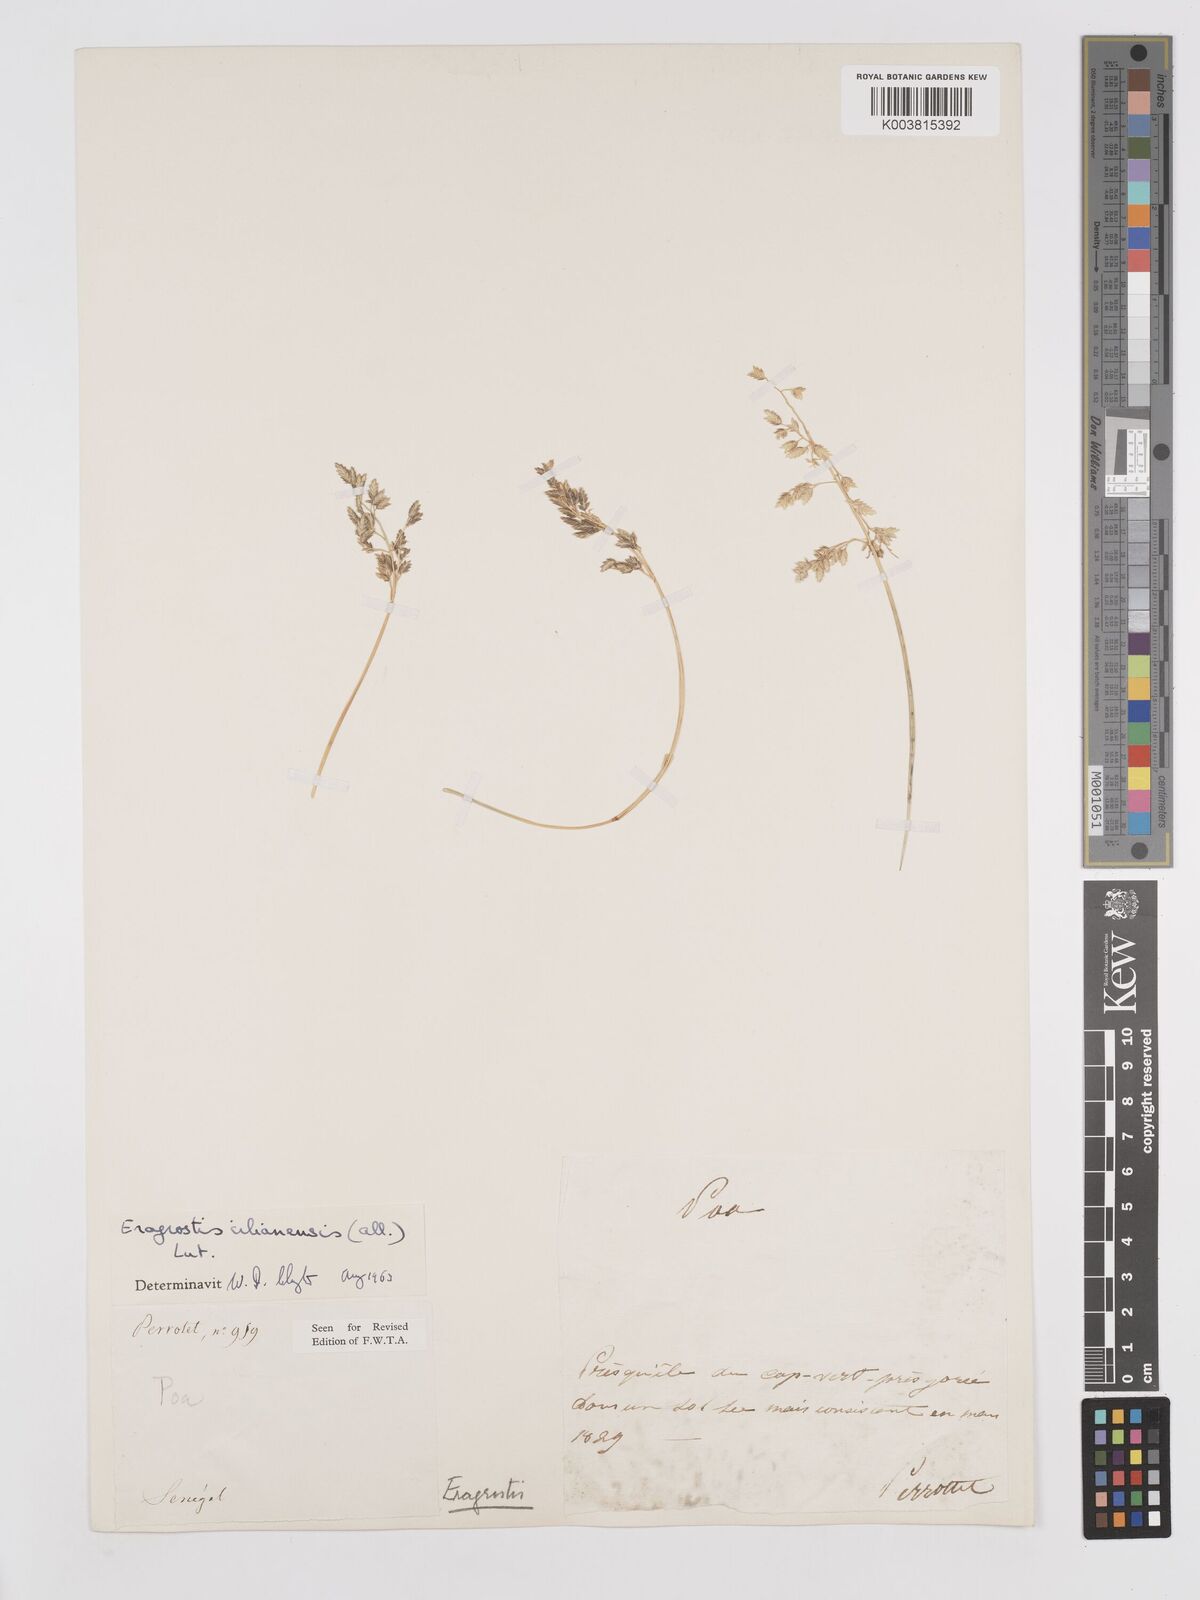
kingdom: Plantae
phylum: Tracheophyta
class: Liliopsida
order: Poales
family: Poaceae
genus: Eragrostis
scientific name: Eragrostis cilianensis
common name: Stinkgrass
